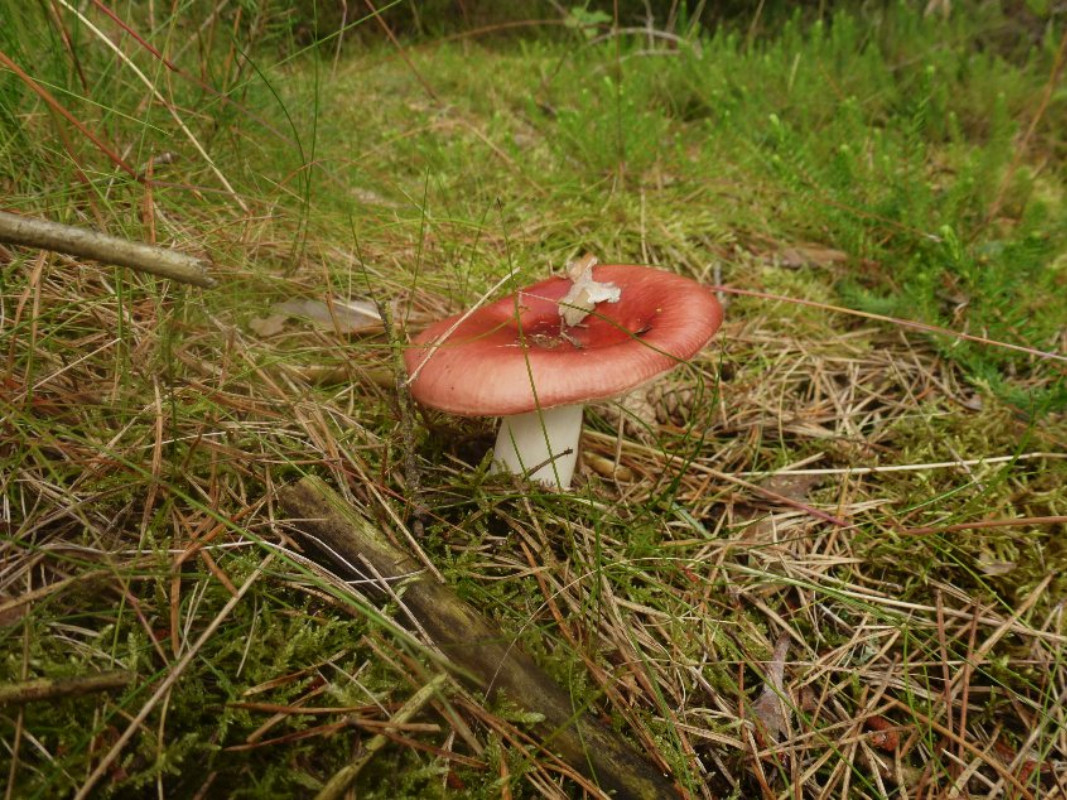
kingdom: Fungi
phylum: Basidiomycota
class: Agaricomycetes
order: Russulales
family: Russulaceae
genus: Russula
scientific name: Russula paludosa
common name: prægtig skørhat
